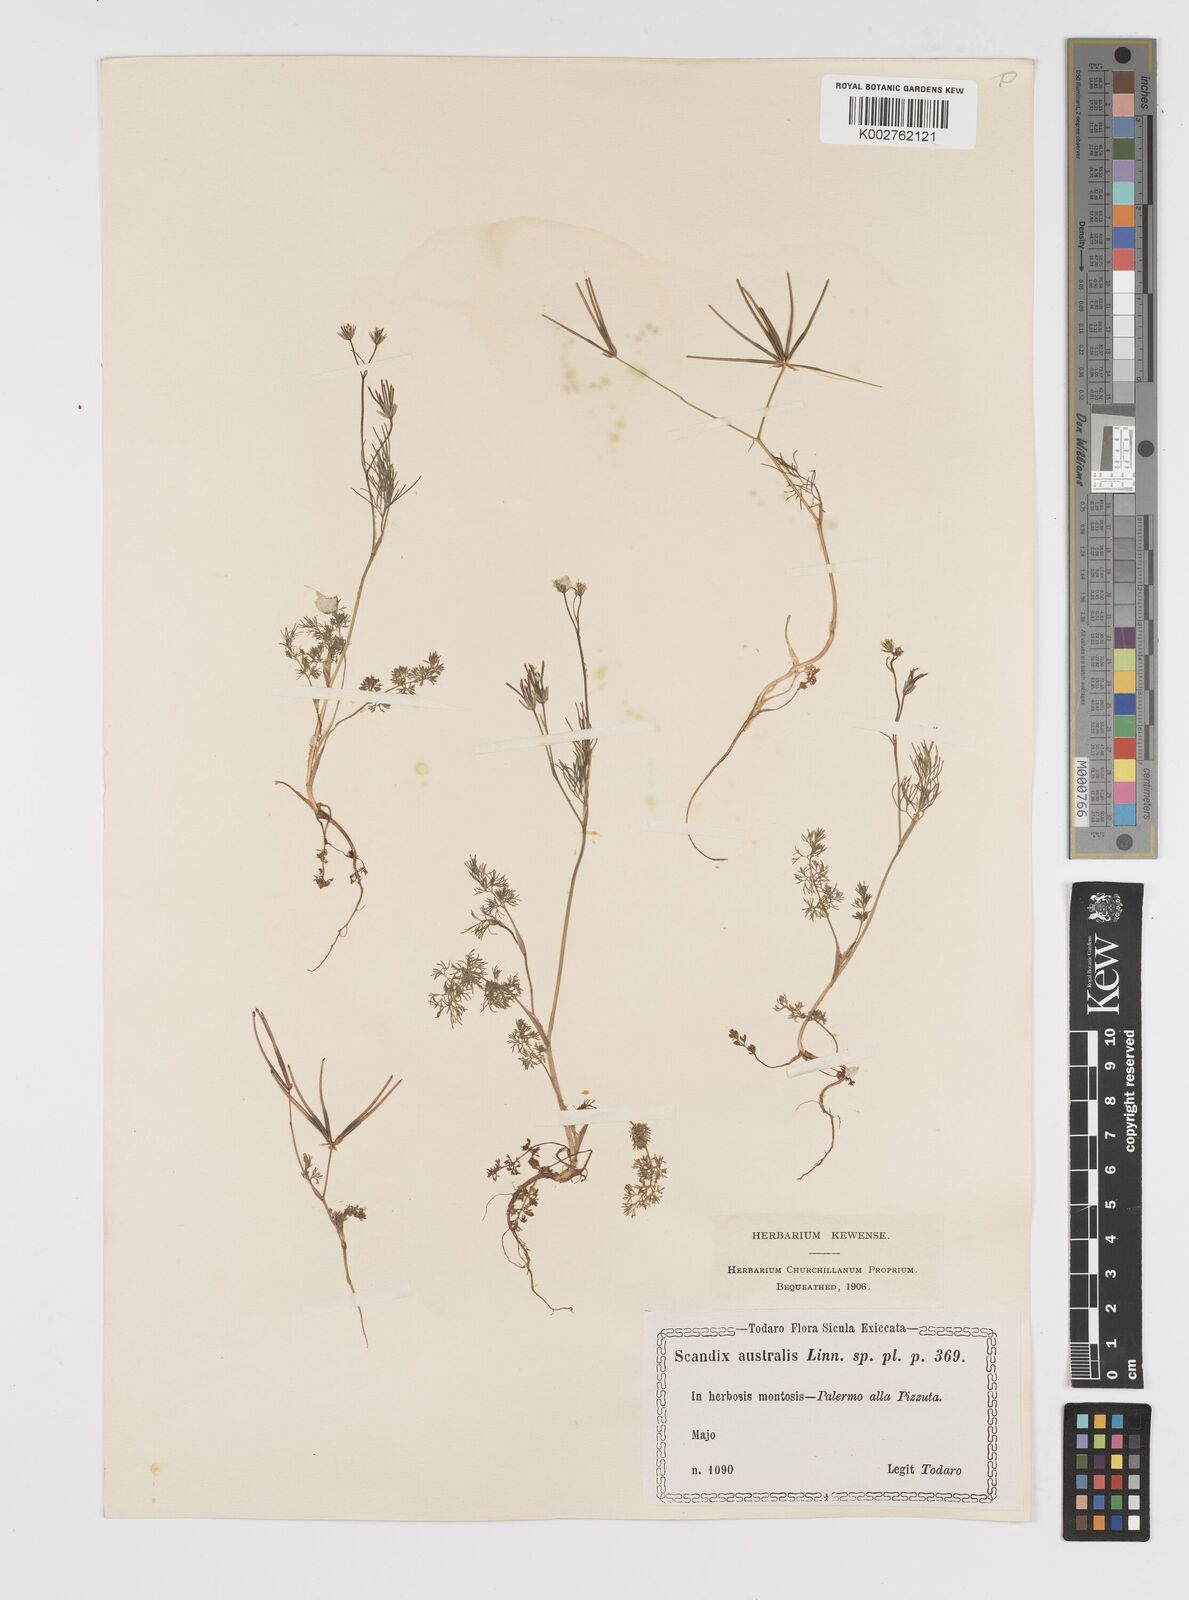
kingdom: Plantae
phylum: Tracheophyta
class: Magnoliopsida
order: Apiales
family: Apiaceae
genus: Scandix
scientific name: Scandix australis
